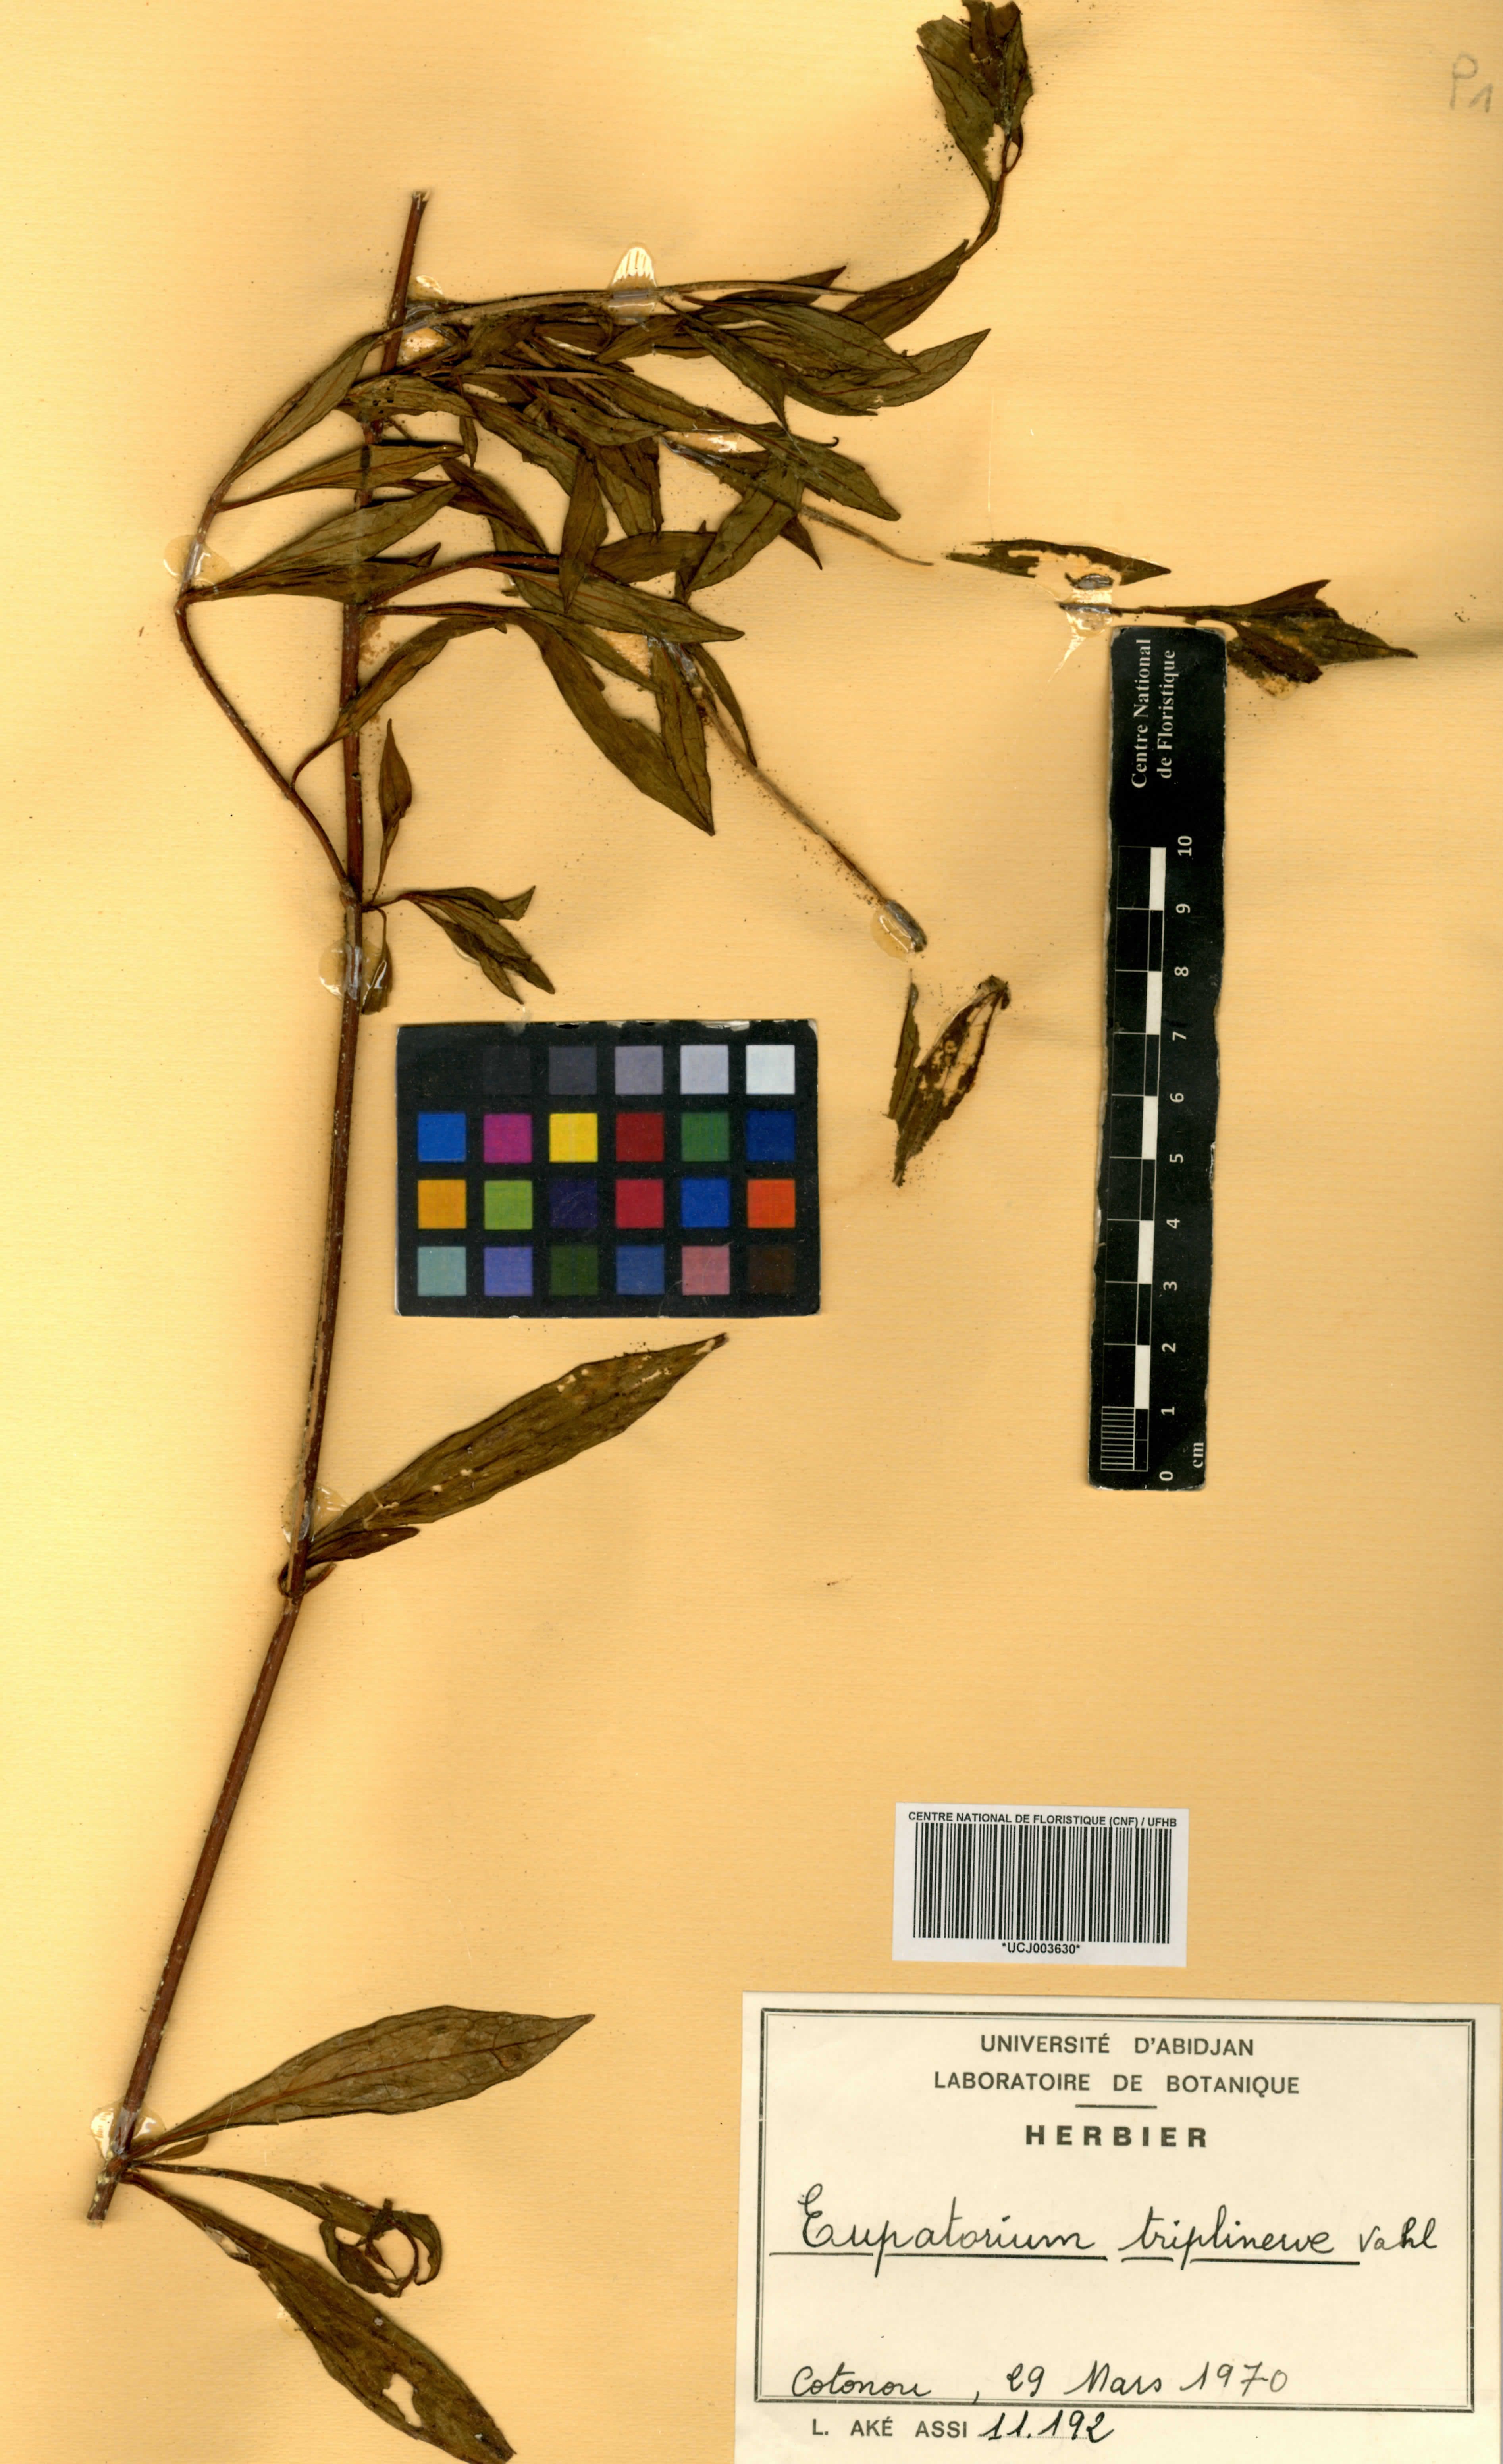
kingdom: Plantae
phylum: Tracheophyta
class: Magnoliopsida
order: Asterales
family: Asteraceae
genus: Ayapana
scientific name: Ayapana triplinervis
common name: Triplinerved eupatorium
